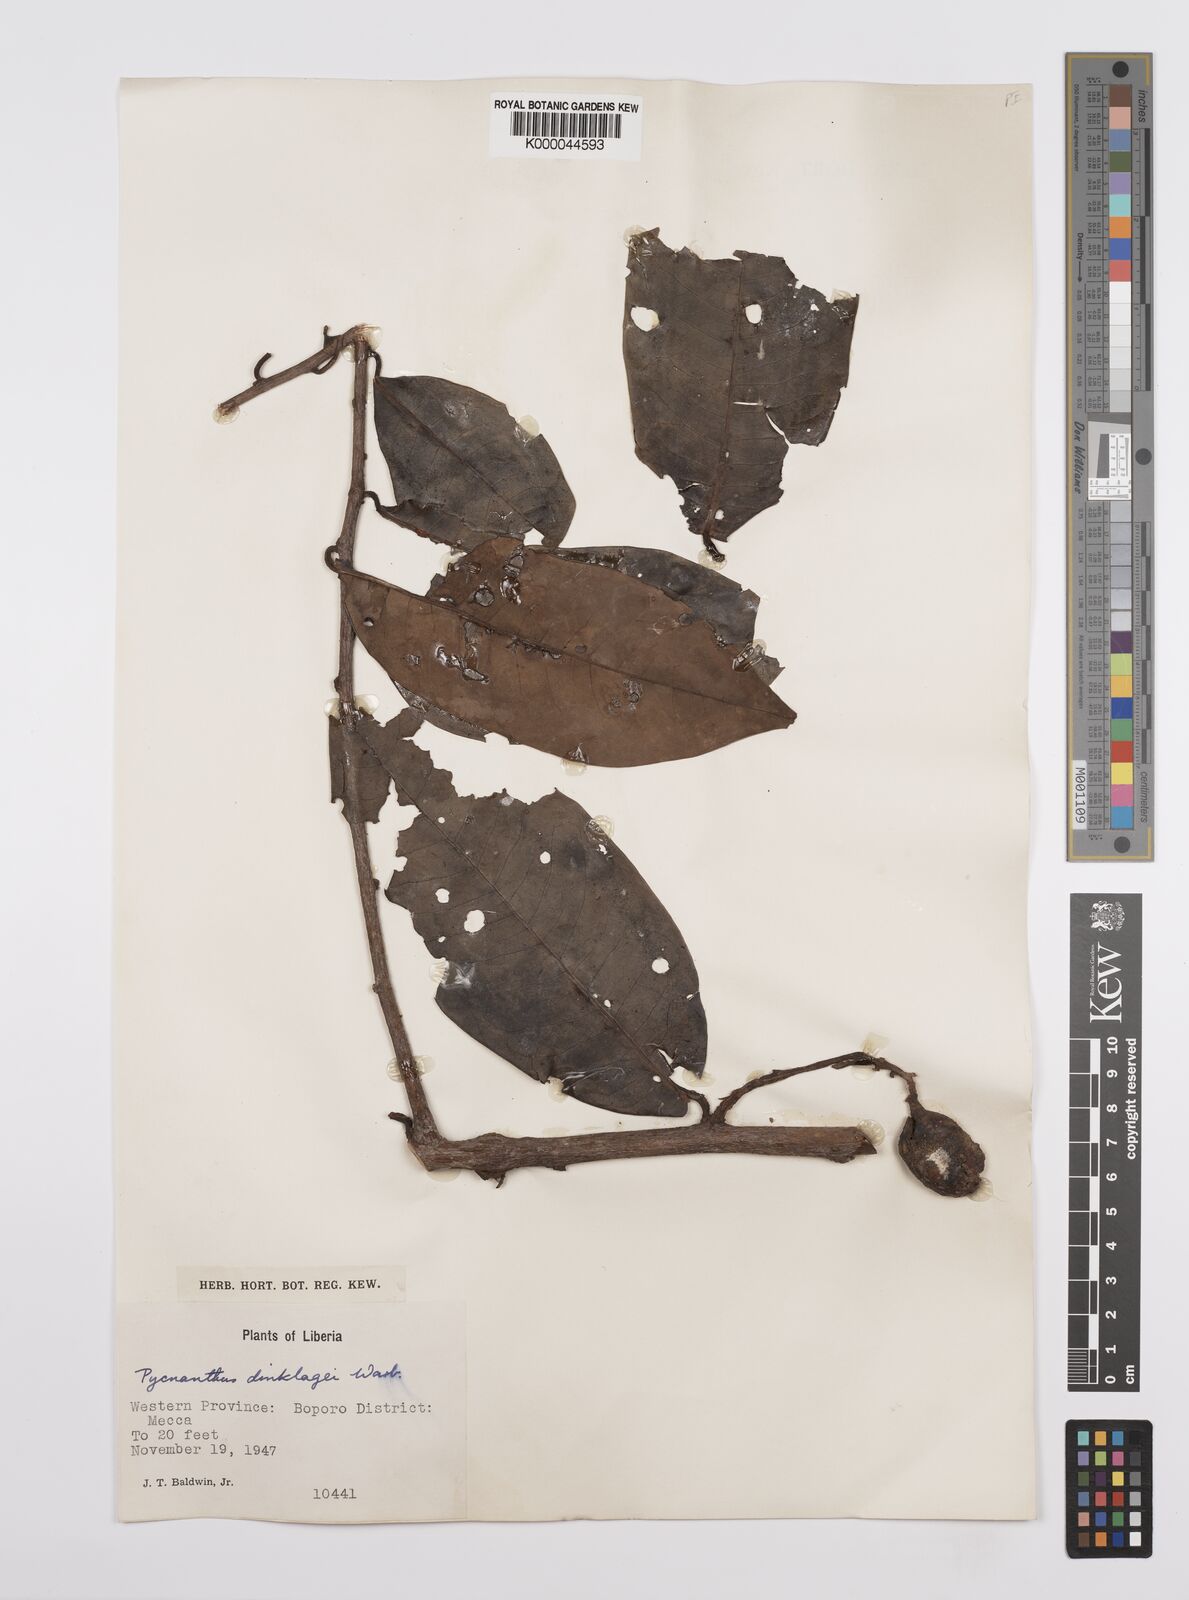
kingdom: Plantae
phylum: Tracheophyta
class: Magnoliopsida
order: Magnoliales
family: Myristicaceae
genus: Pycnanthus
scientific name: Pycnanthus dinklagei
